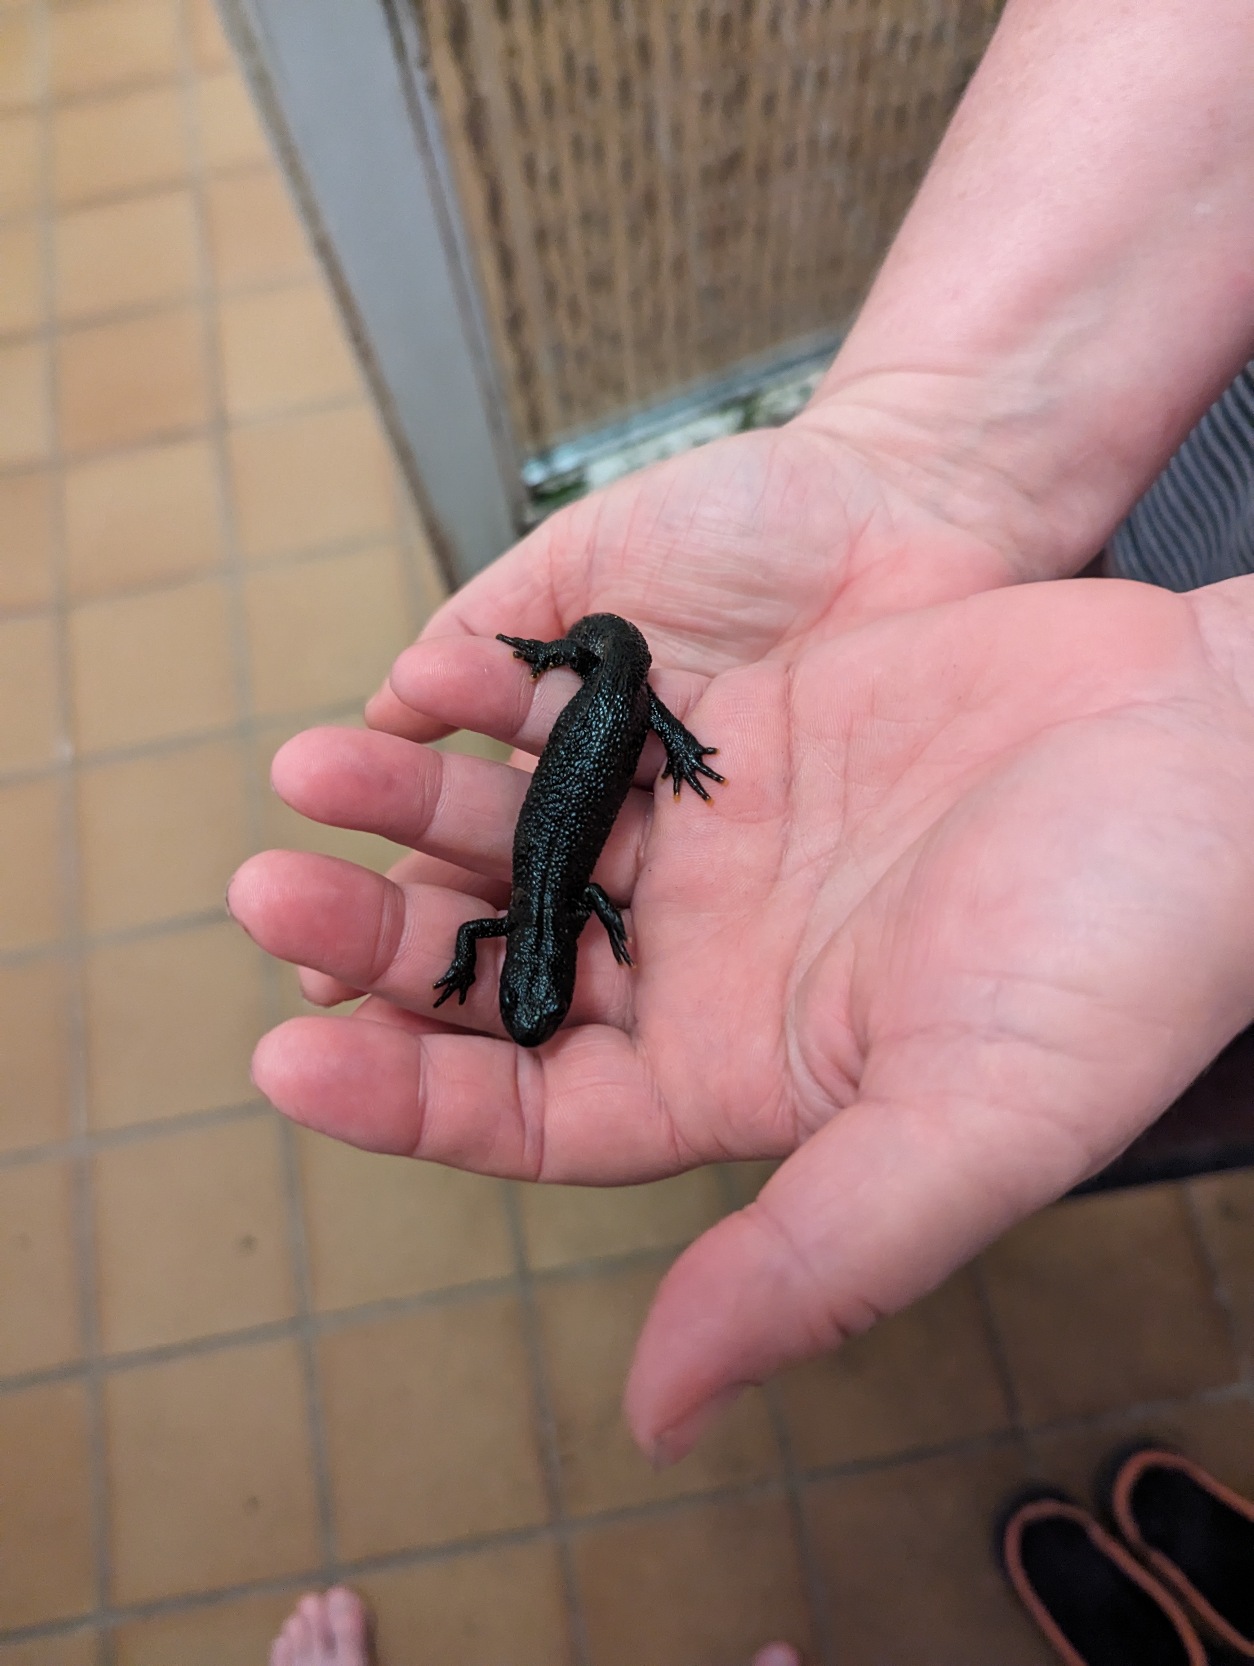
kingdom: Animalia
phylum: Chordata
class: Amphibia
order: Caudata
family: Salamandridae
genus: Triturus
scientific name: Triturus cristatus
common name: Stor vandsalamander
